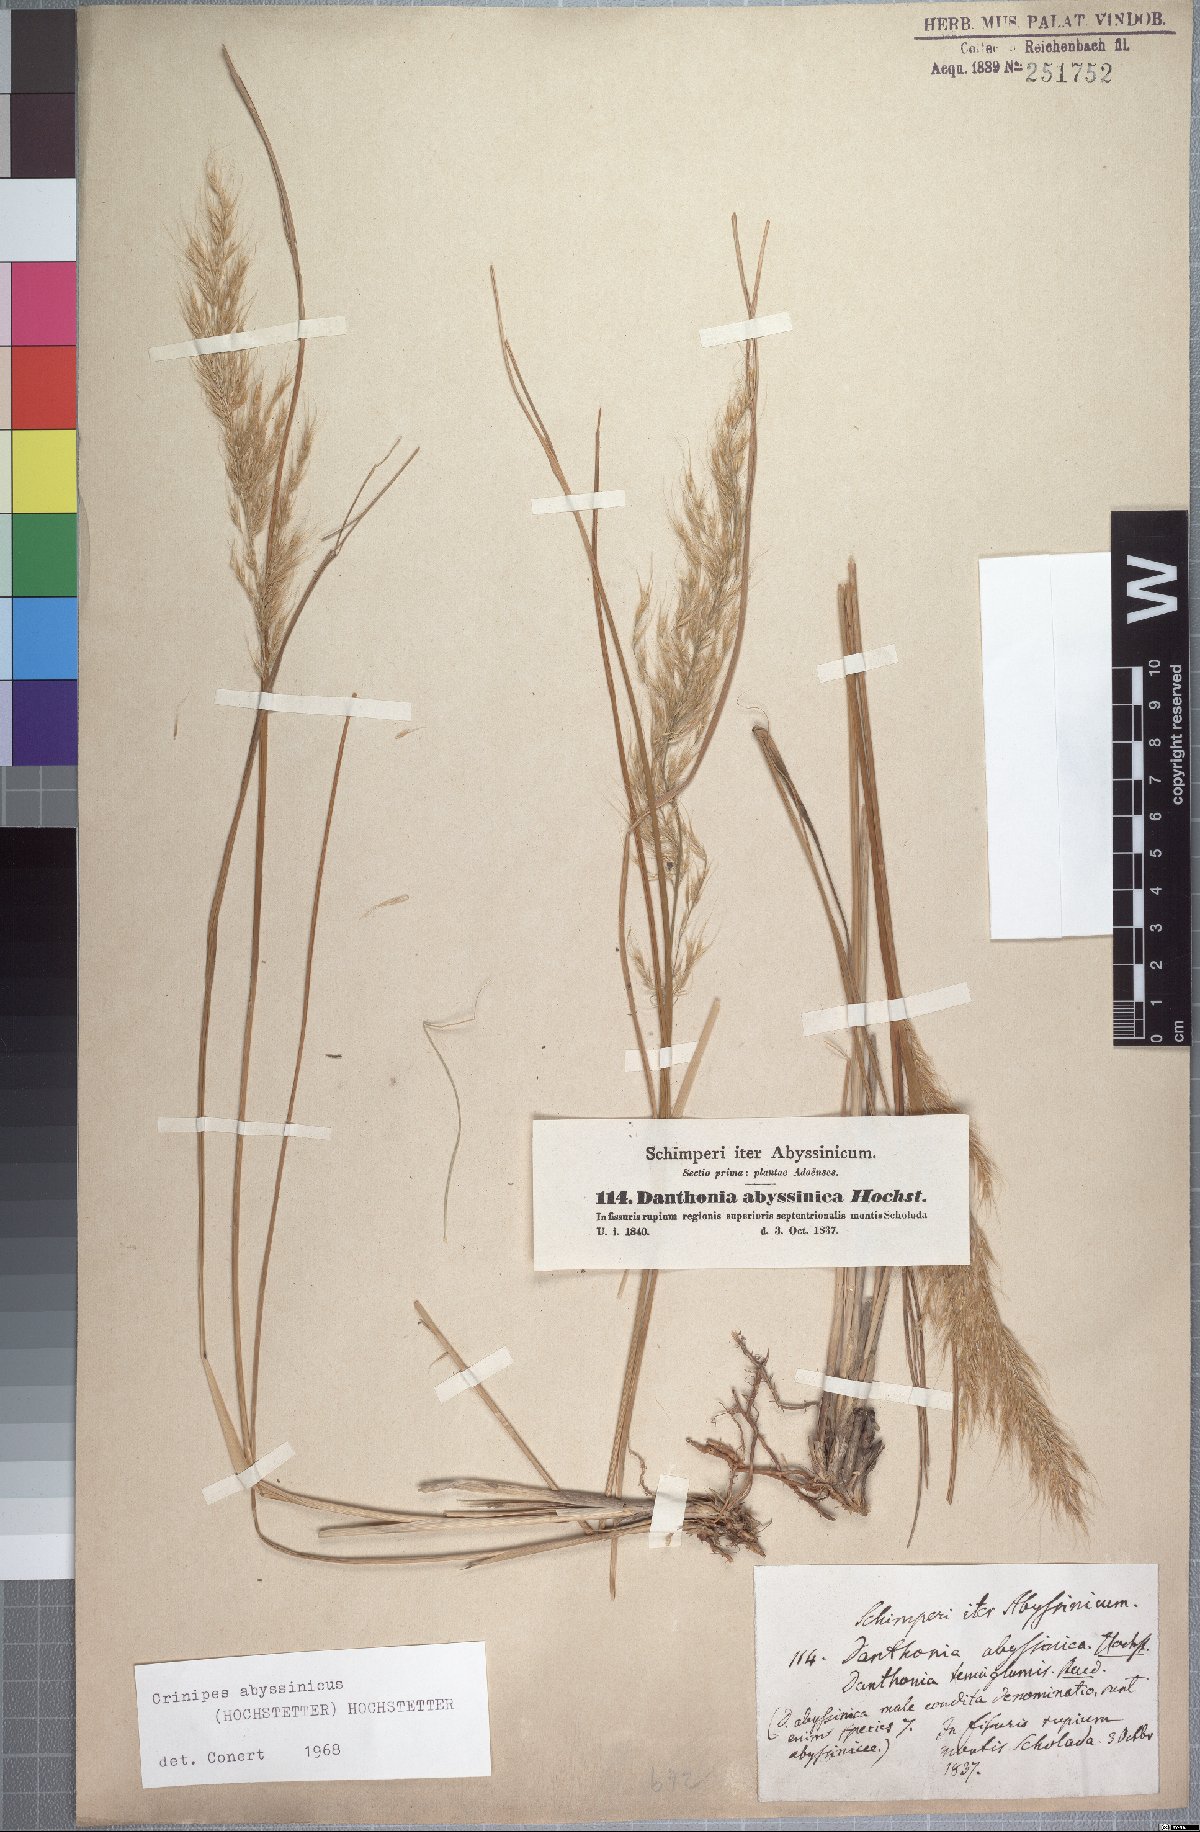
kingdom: Plantae
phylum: Tracheophyta
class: Liliopsida
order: Poales
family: Poaceae
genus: Crinipes
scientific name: Crinipes abyssinicus
